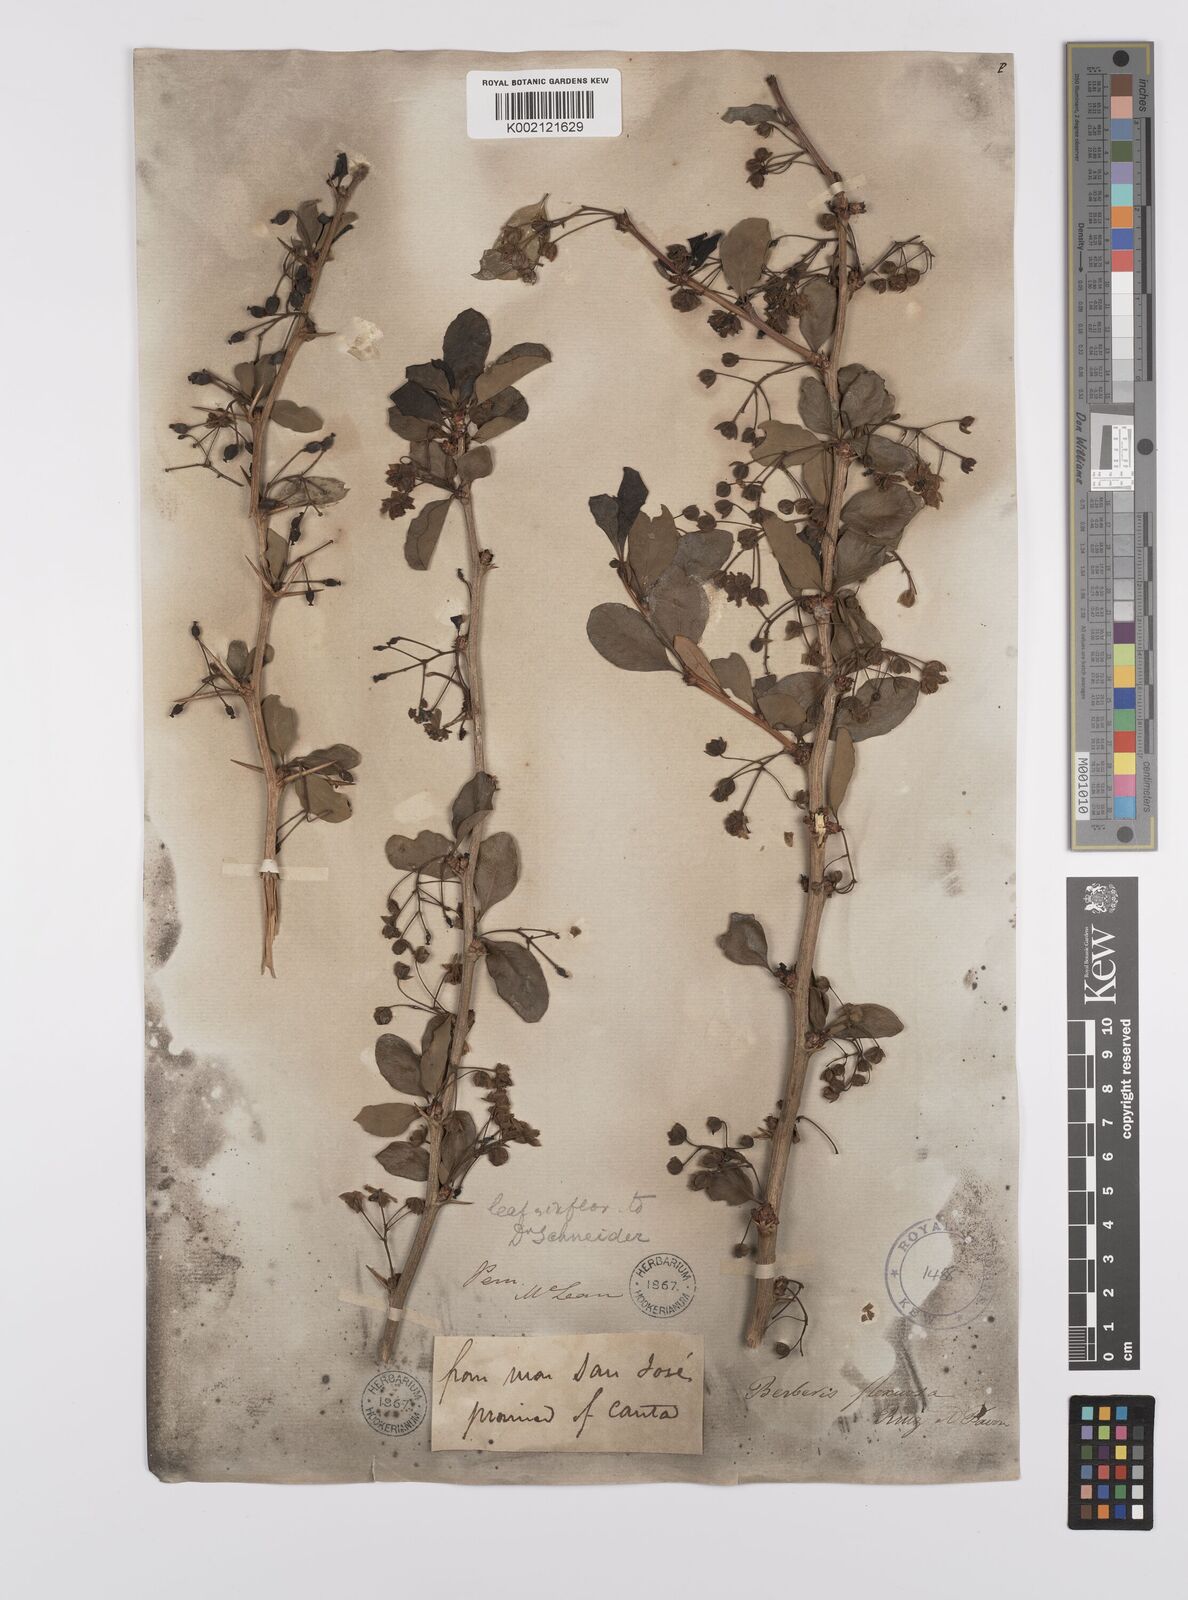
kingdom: Plantae
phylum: Tracheophyta
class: Magnoliopsida
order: Ranunculales
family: Berberidaceae
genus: Berberis
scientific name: Berberis flexuosa
